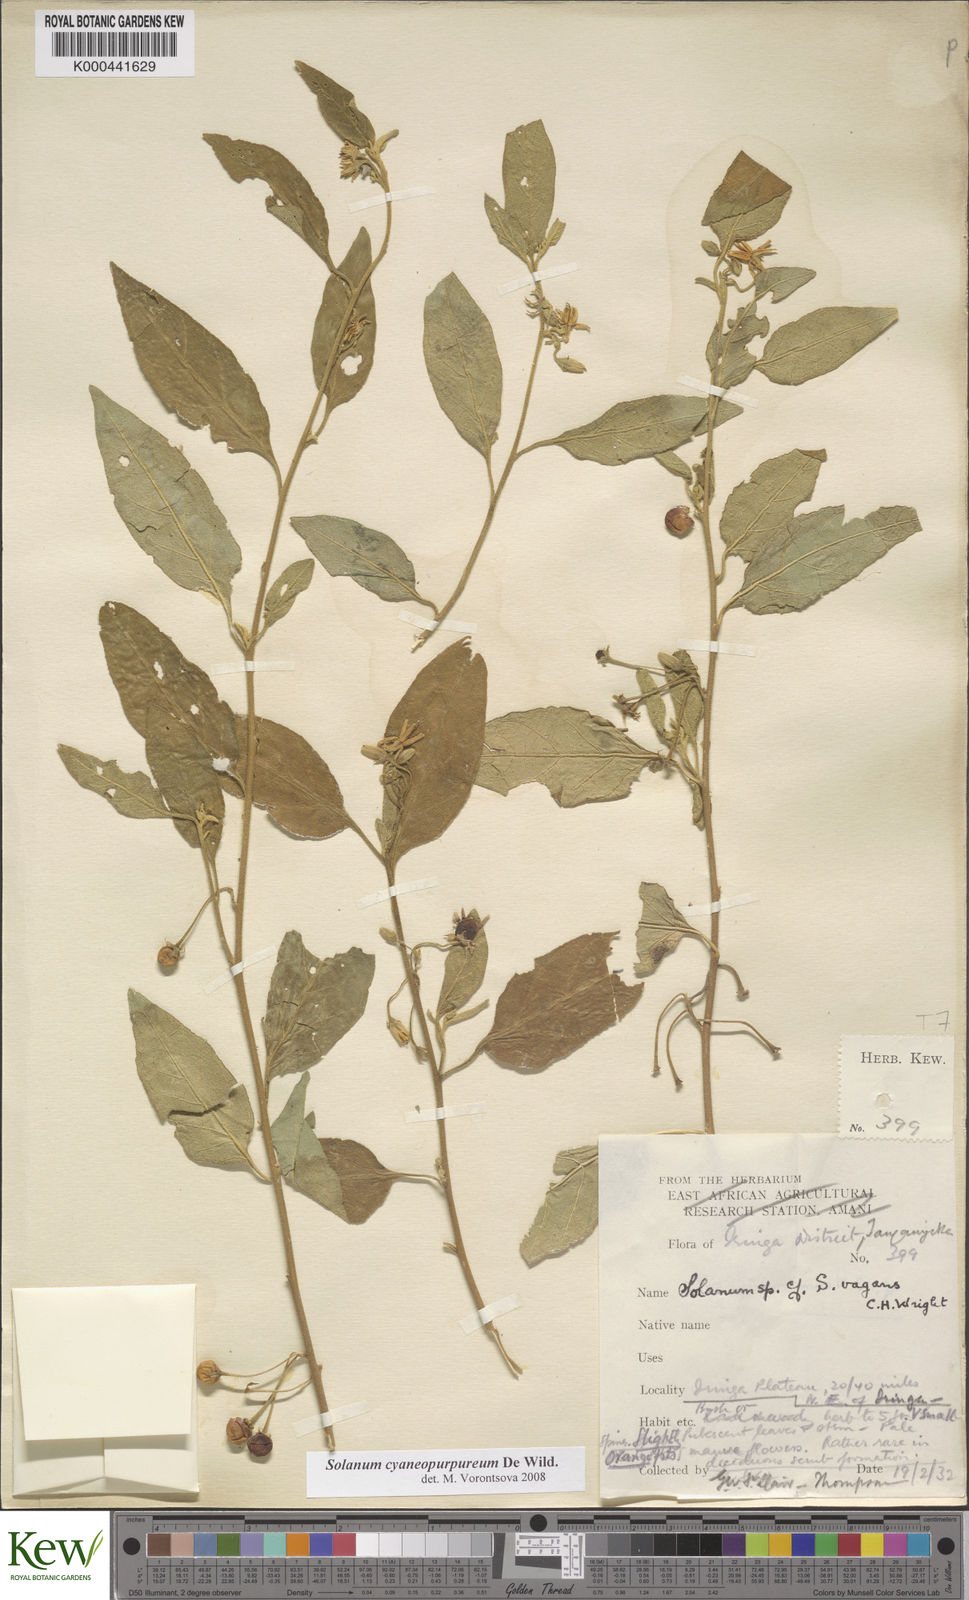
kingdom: Plantae
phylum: Tracheophyta
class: Magnoliopsida
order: Solanales
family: Solanaceae
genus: Solanum
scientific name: Solanum cyaneopurpureum
